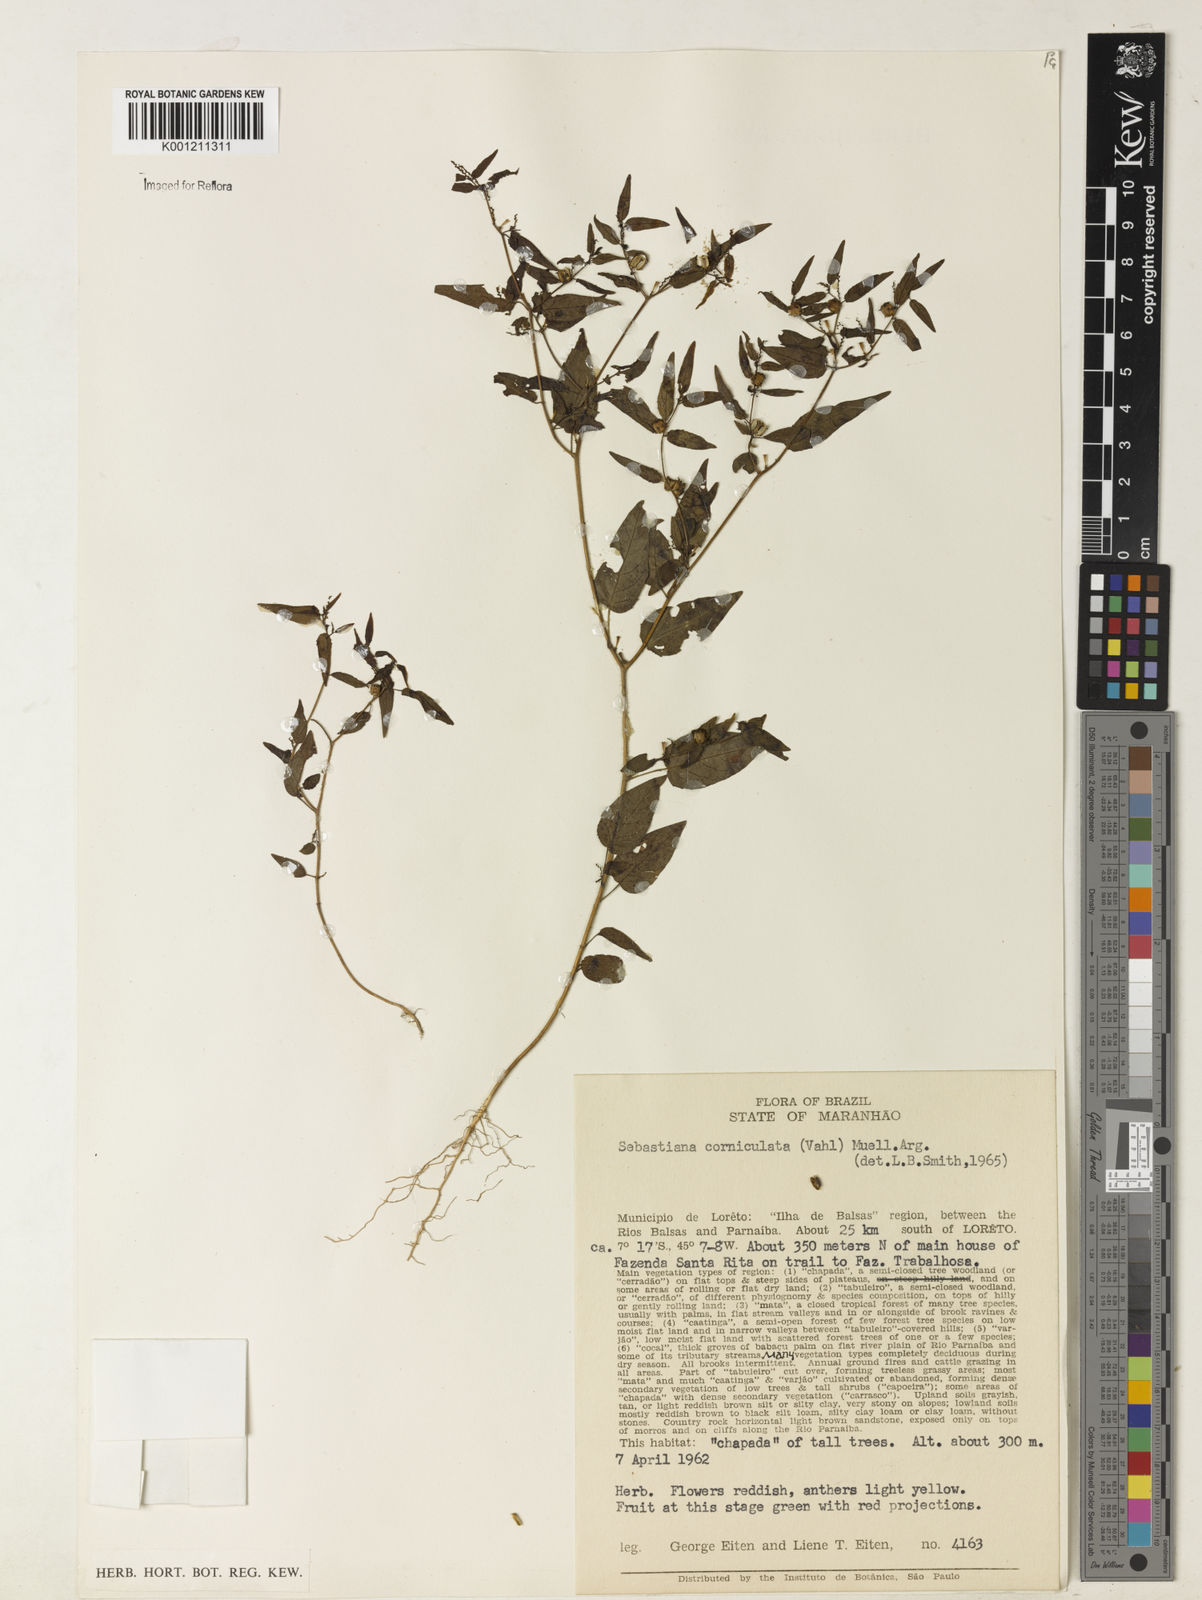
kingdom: Plantae
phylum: Tracheophyta
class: Magnoliopsida
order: Malpighiales
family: Euphorbiaceae
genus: Microstachys
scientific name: Microstachys corniculata
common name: Hato tejas
